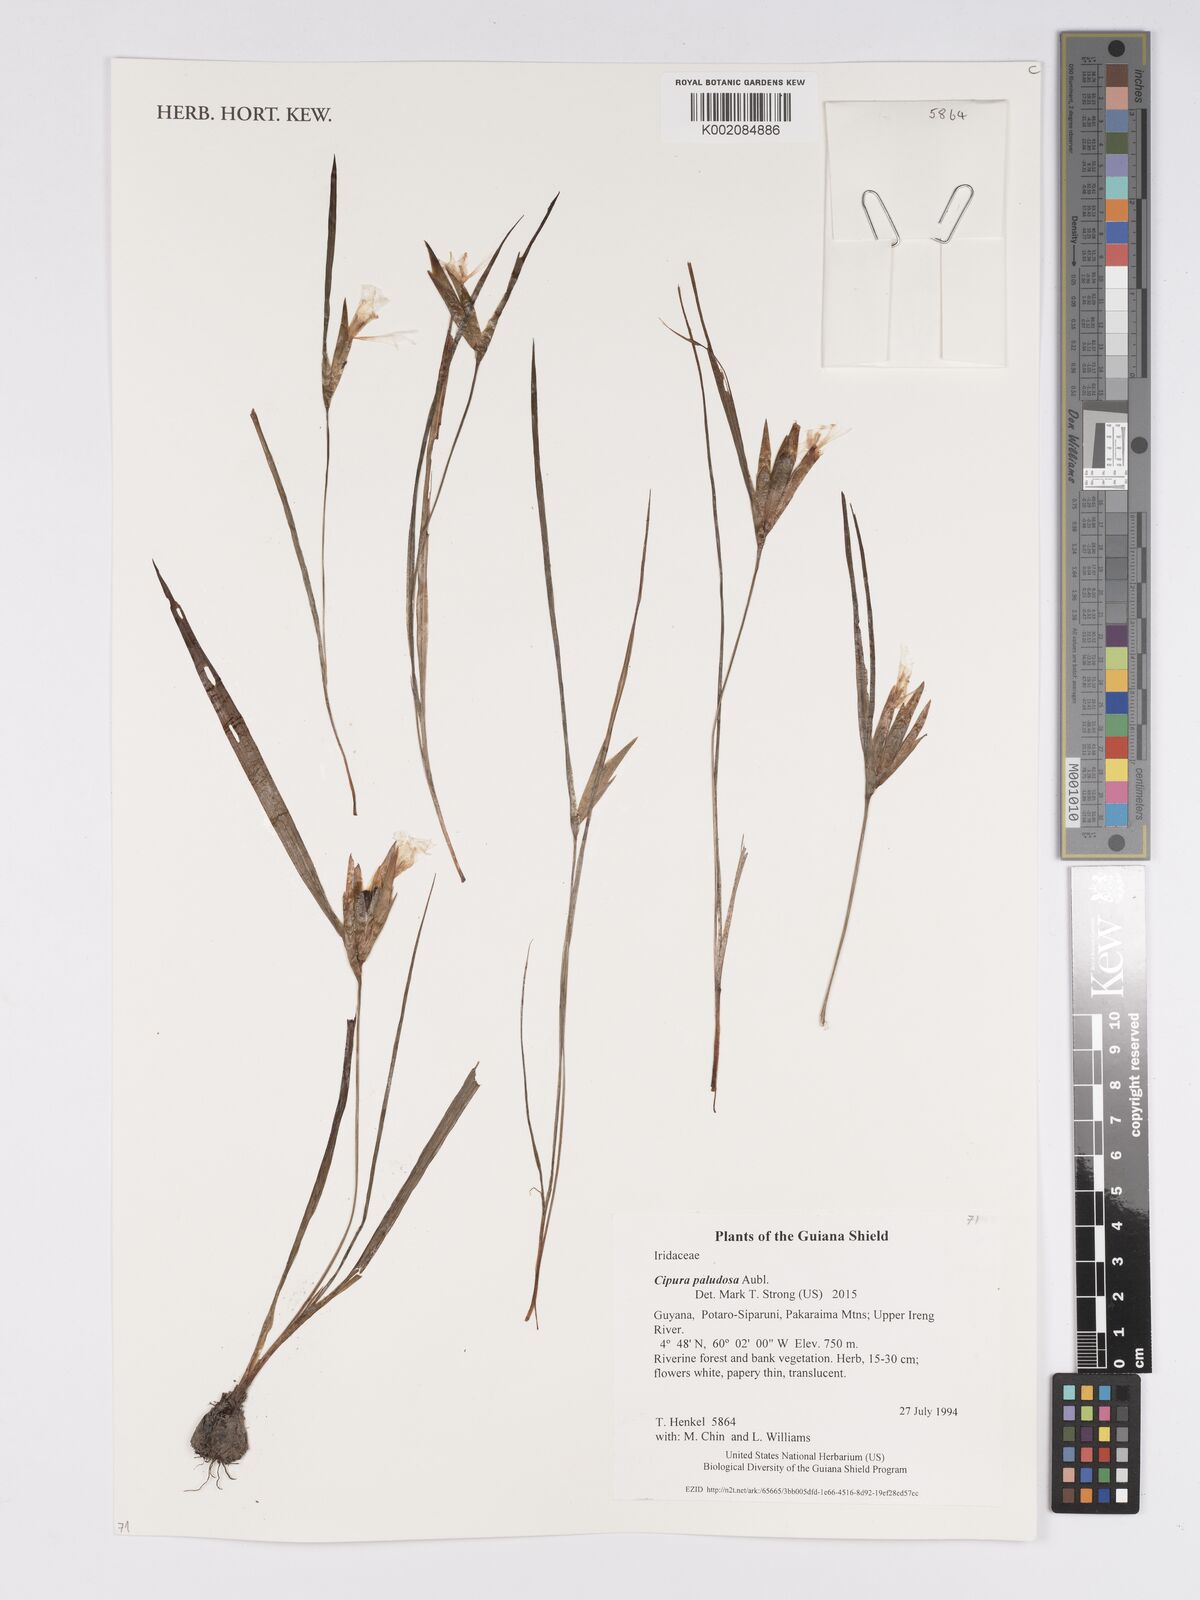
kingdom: Plantae
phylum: Tracheophyta
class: Liliopsida
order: Asparagales
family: Iridaceae
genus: Cipura
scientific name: Cipura paludosa
